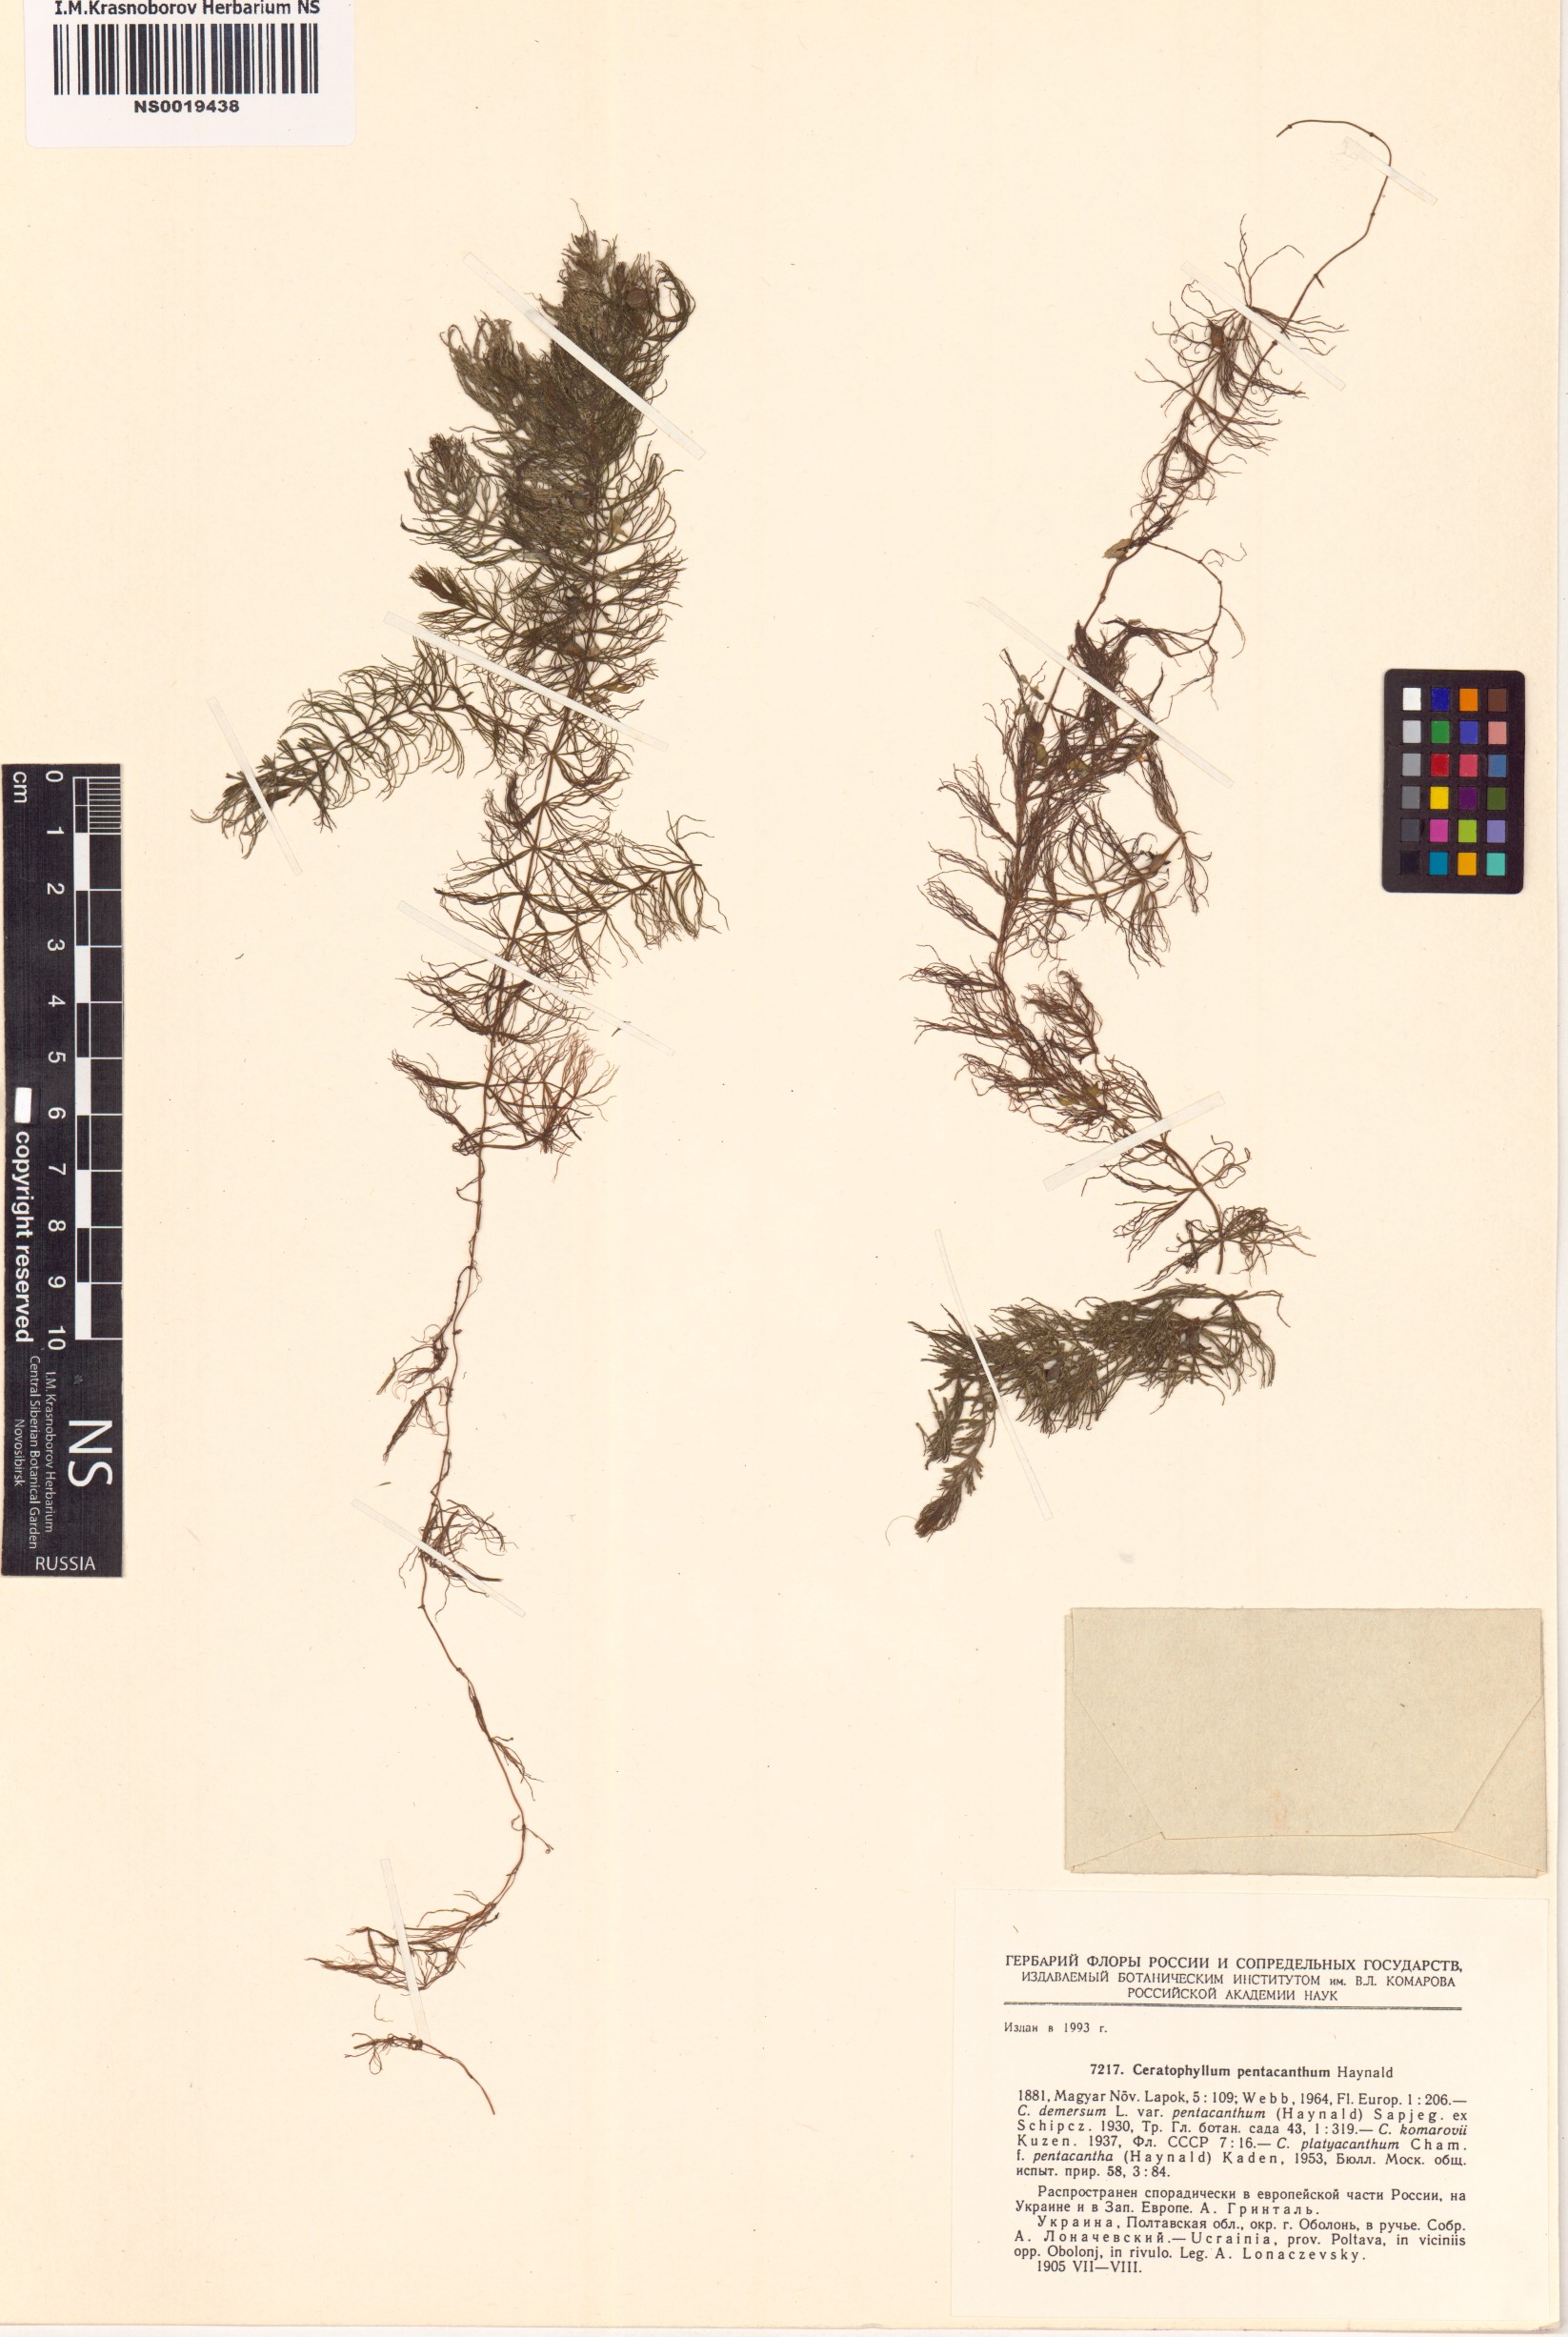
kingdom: Plantae
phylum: Tracheophyta
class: Magnoliopsida
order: Ceratophyllales
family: Ceratophyllaceae
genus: Ceratophyllum
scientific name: Ceratophyllum platyacanthum
